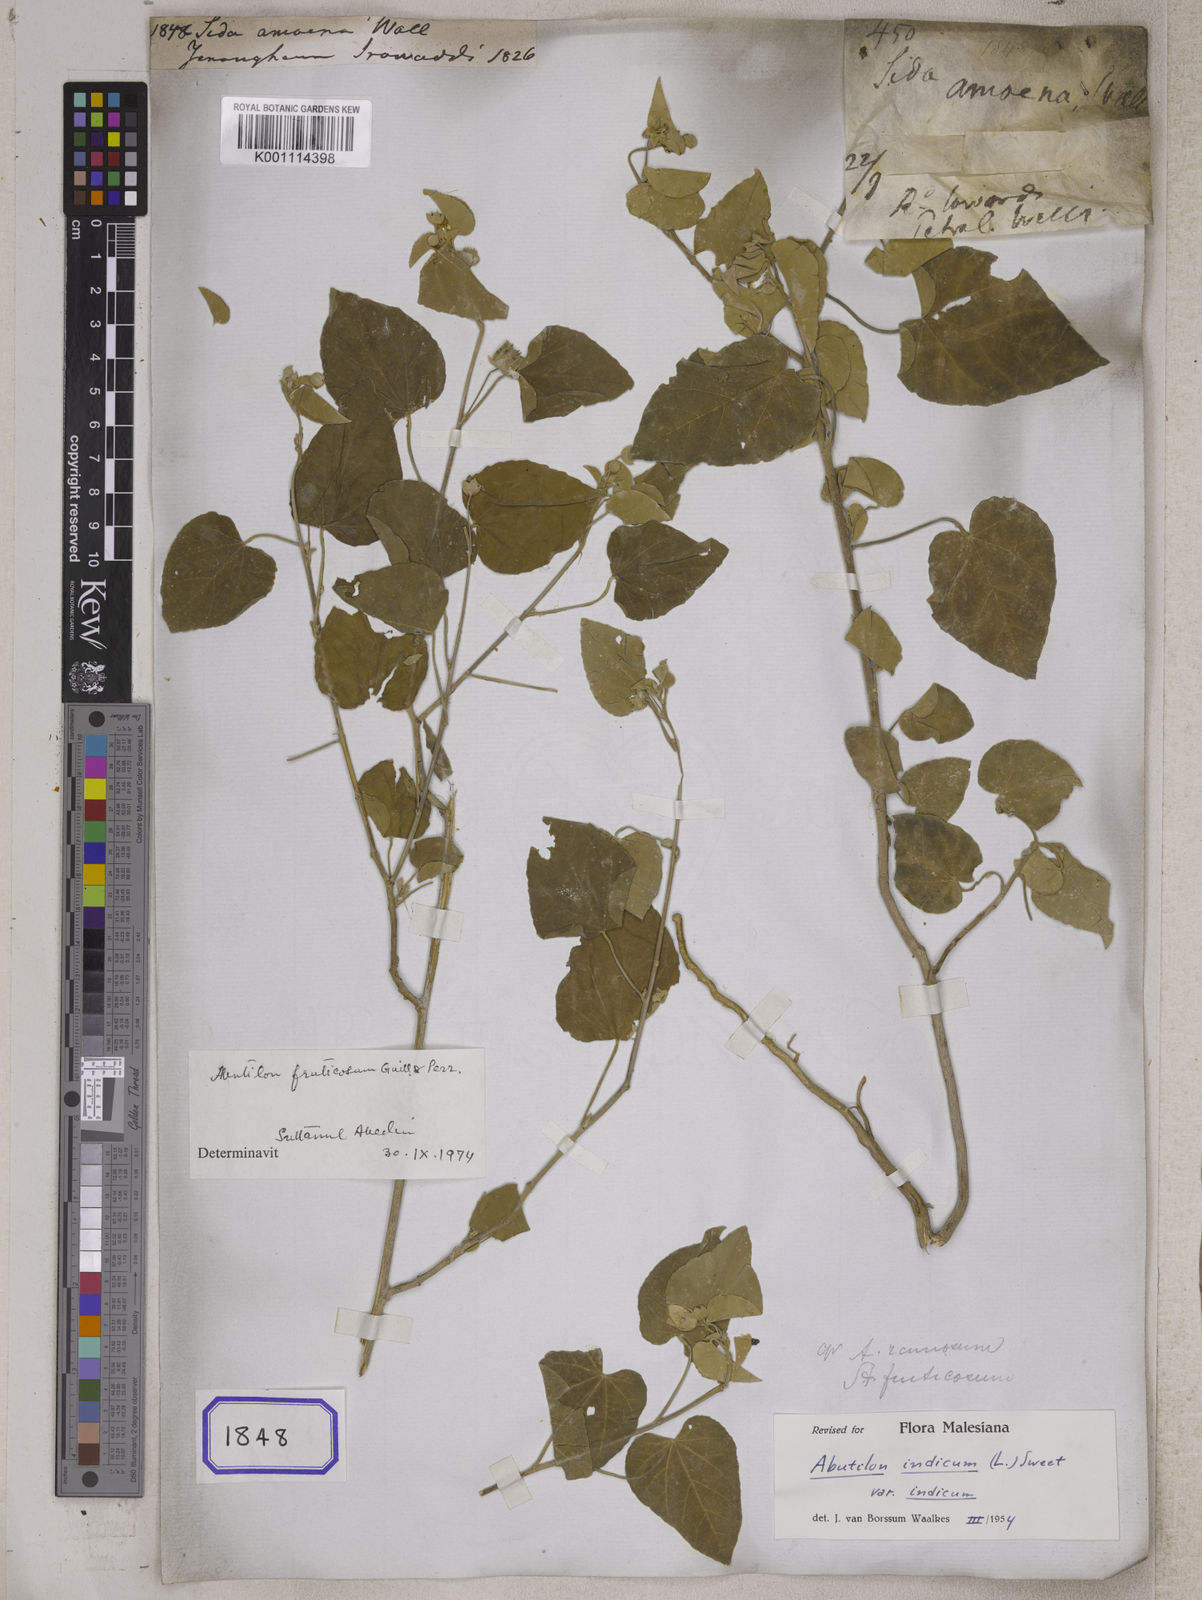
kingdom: Plantae
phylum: Tracheophyta
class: Magnoliopsida
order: Malvales
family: Malvaceae
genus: Abutilon
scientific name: Abutilon fruticosum
